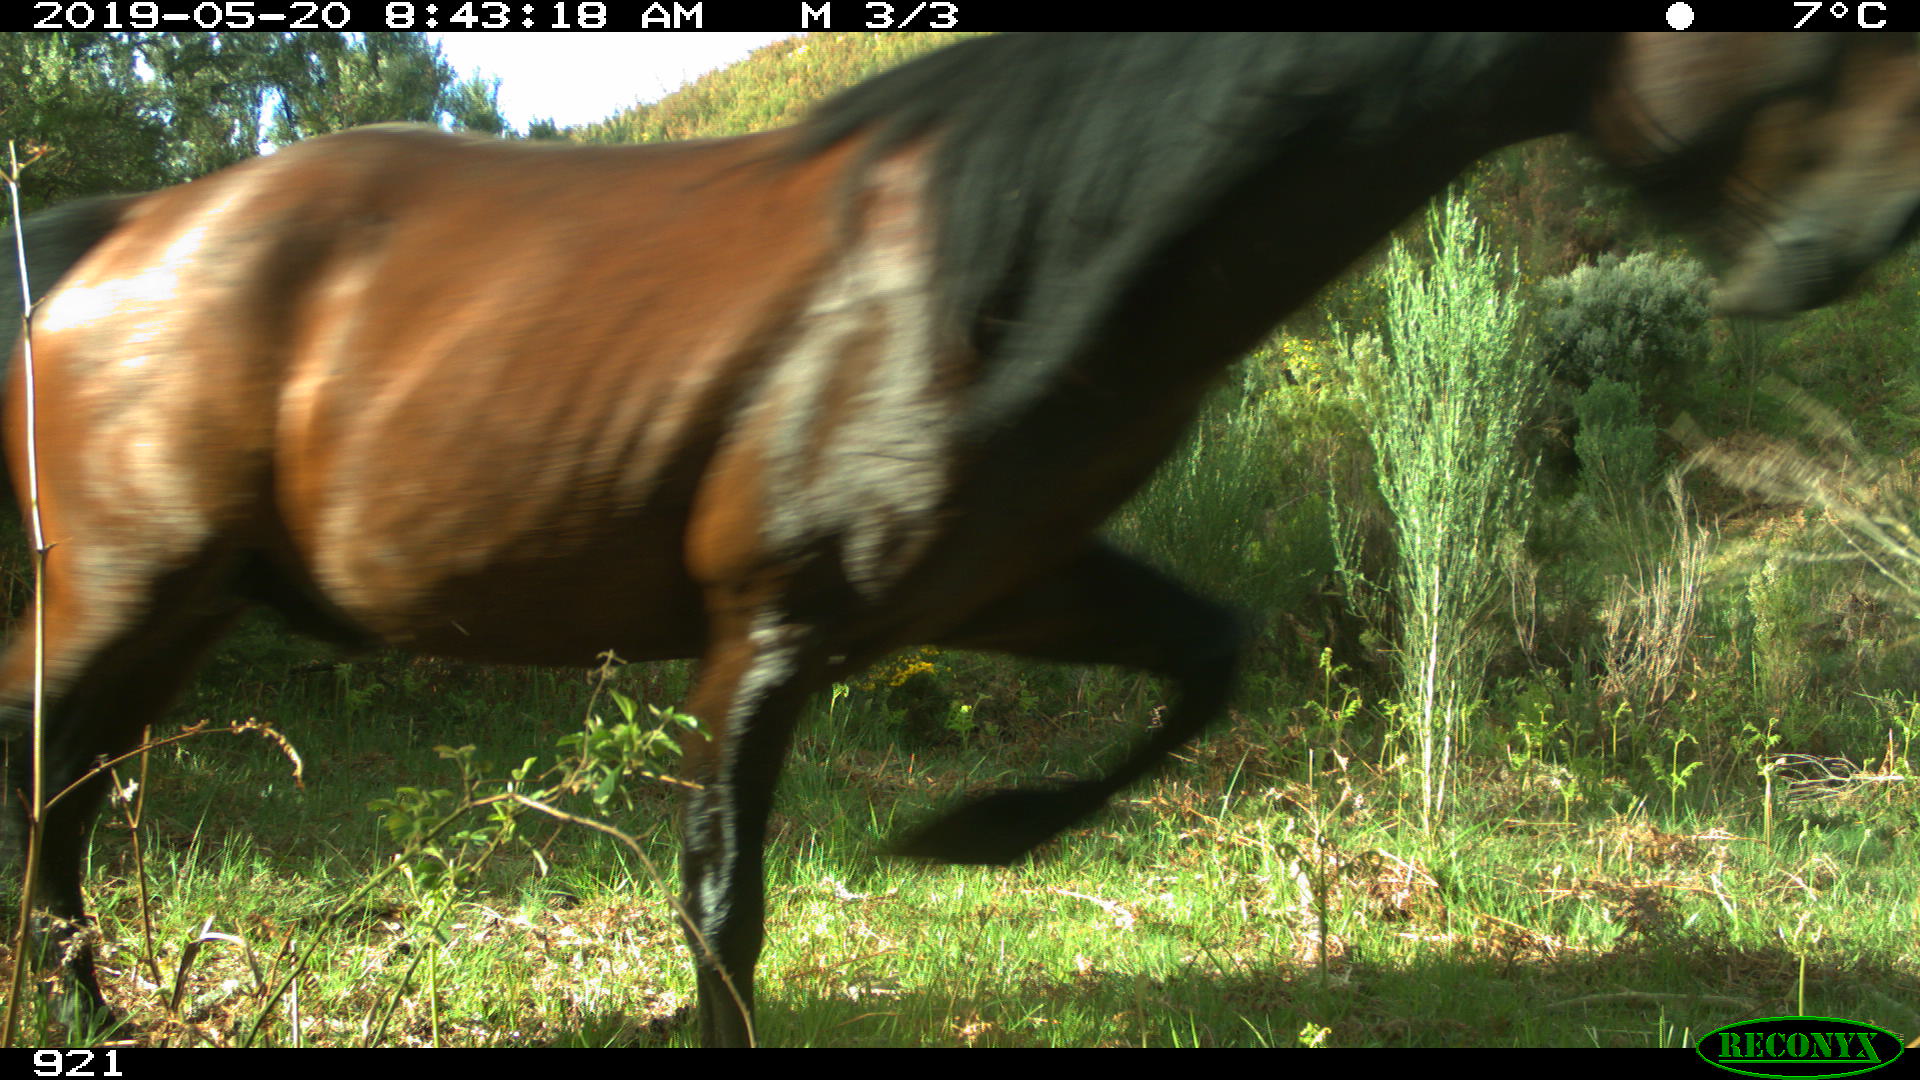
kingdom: Animalia
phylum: Chordata
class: Mammalia
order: Perissodactyla
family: Equidae
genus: Equus
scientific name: Equus caballus
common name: Horse
